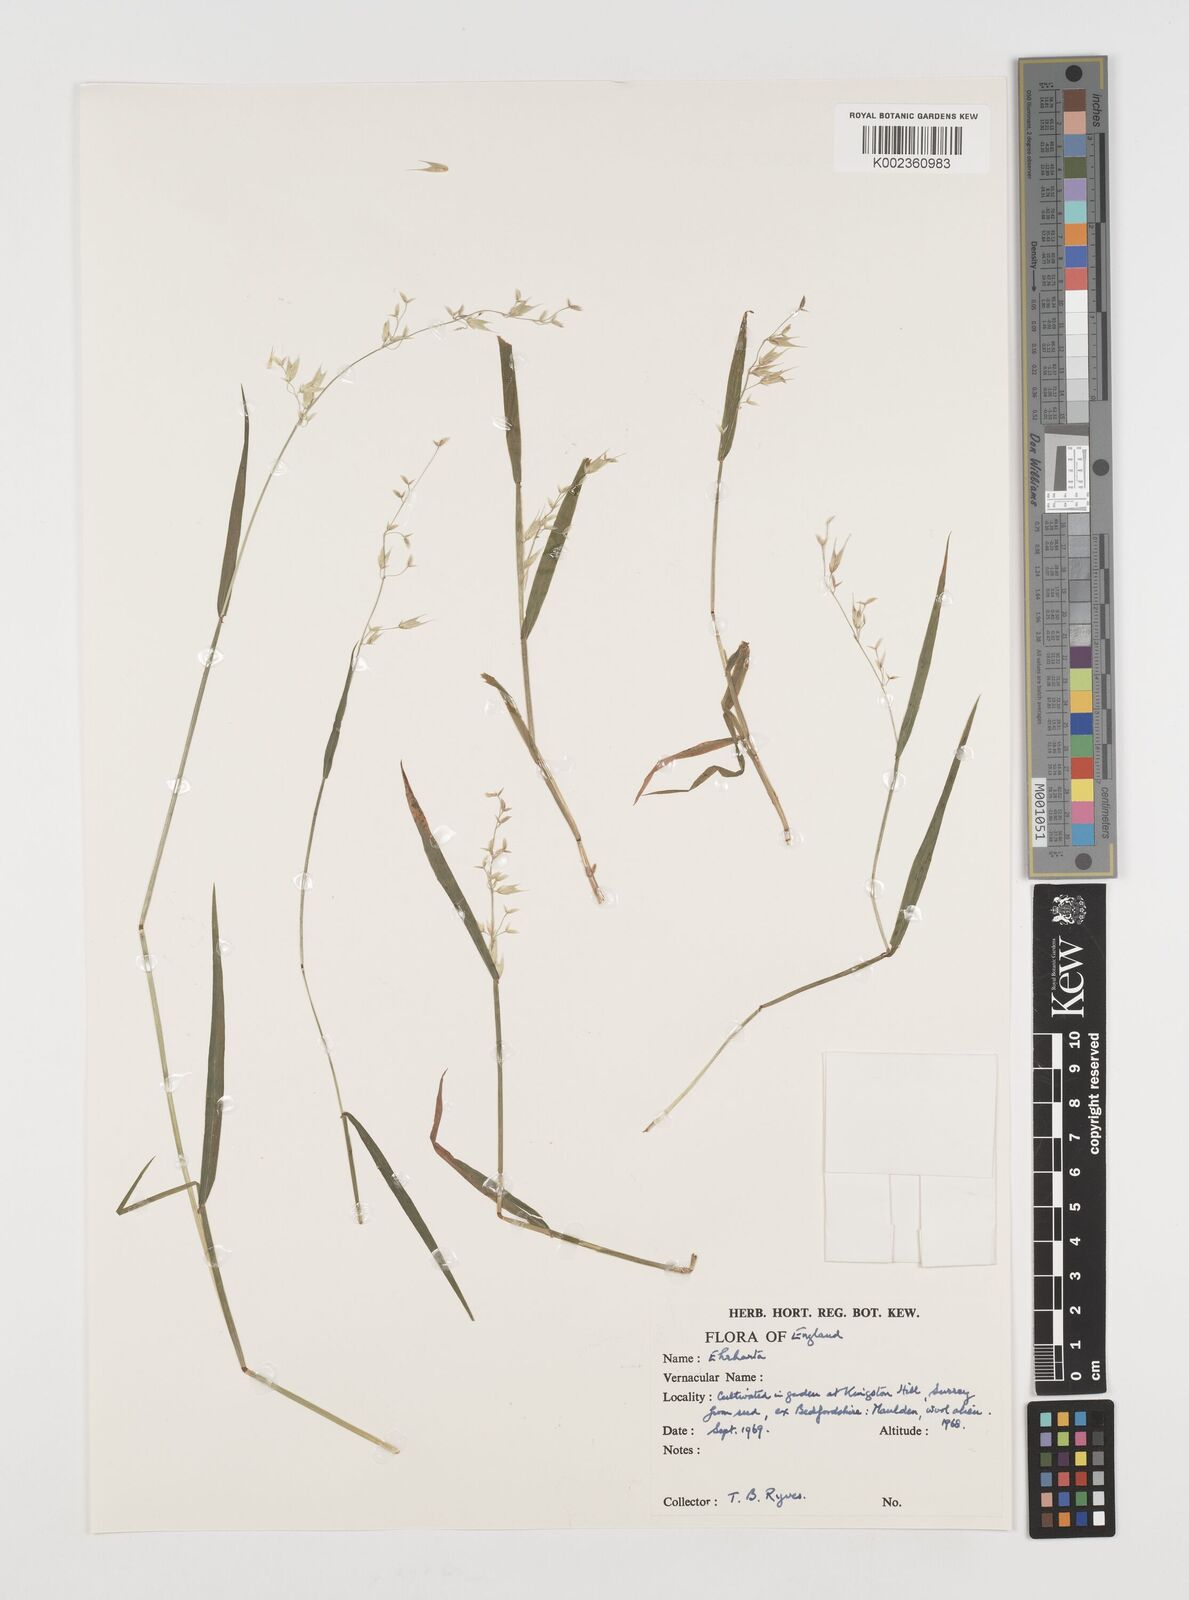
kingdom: Plantae
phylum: Tracheophyta
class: Liliopsida
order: Poales
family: Poaceae
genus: Ehrharta
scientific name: Ehrharta longiflora
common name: Longflowered veldtgrass
